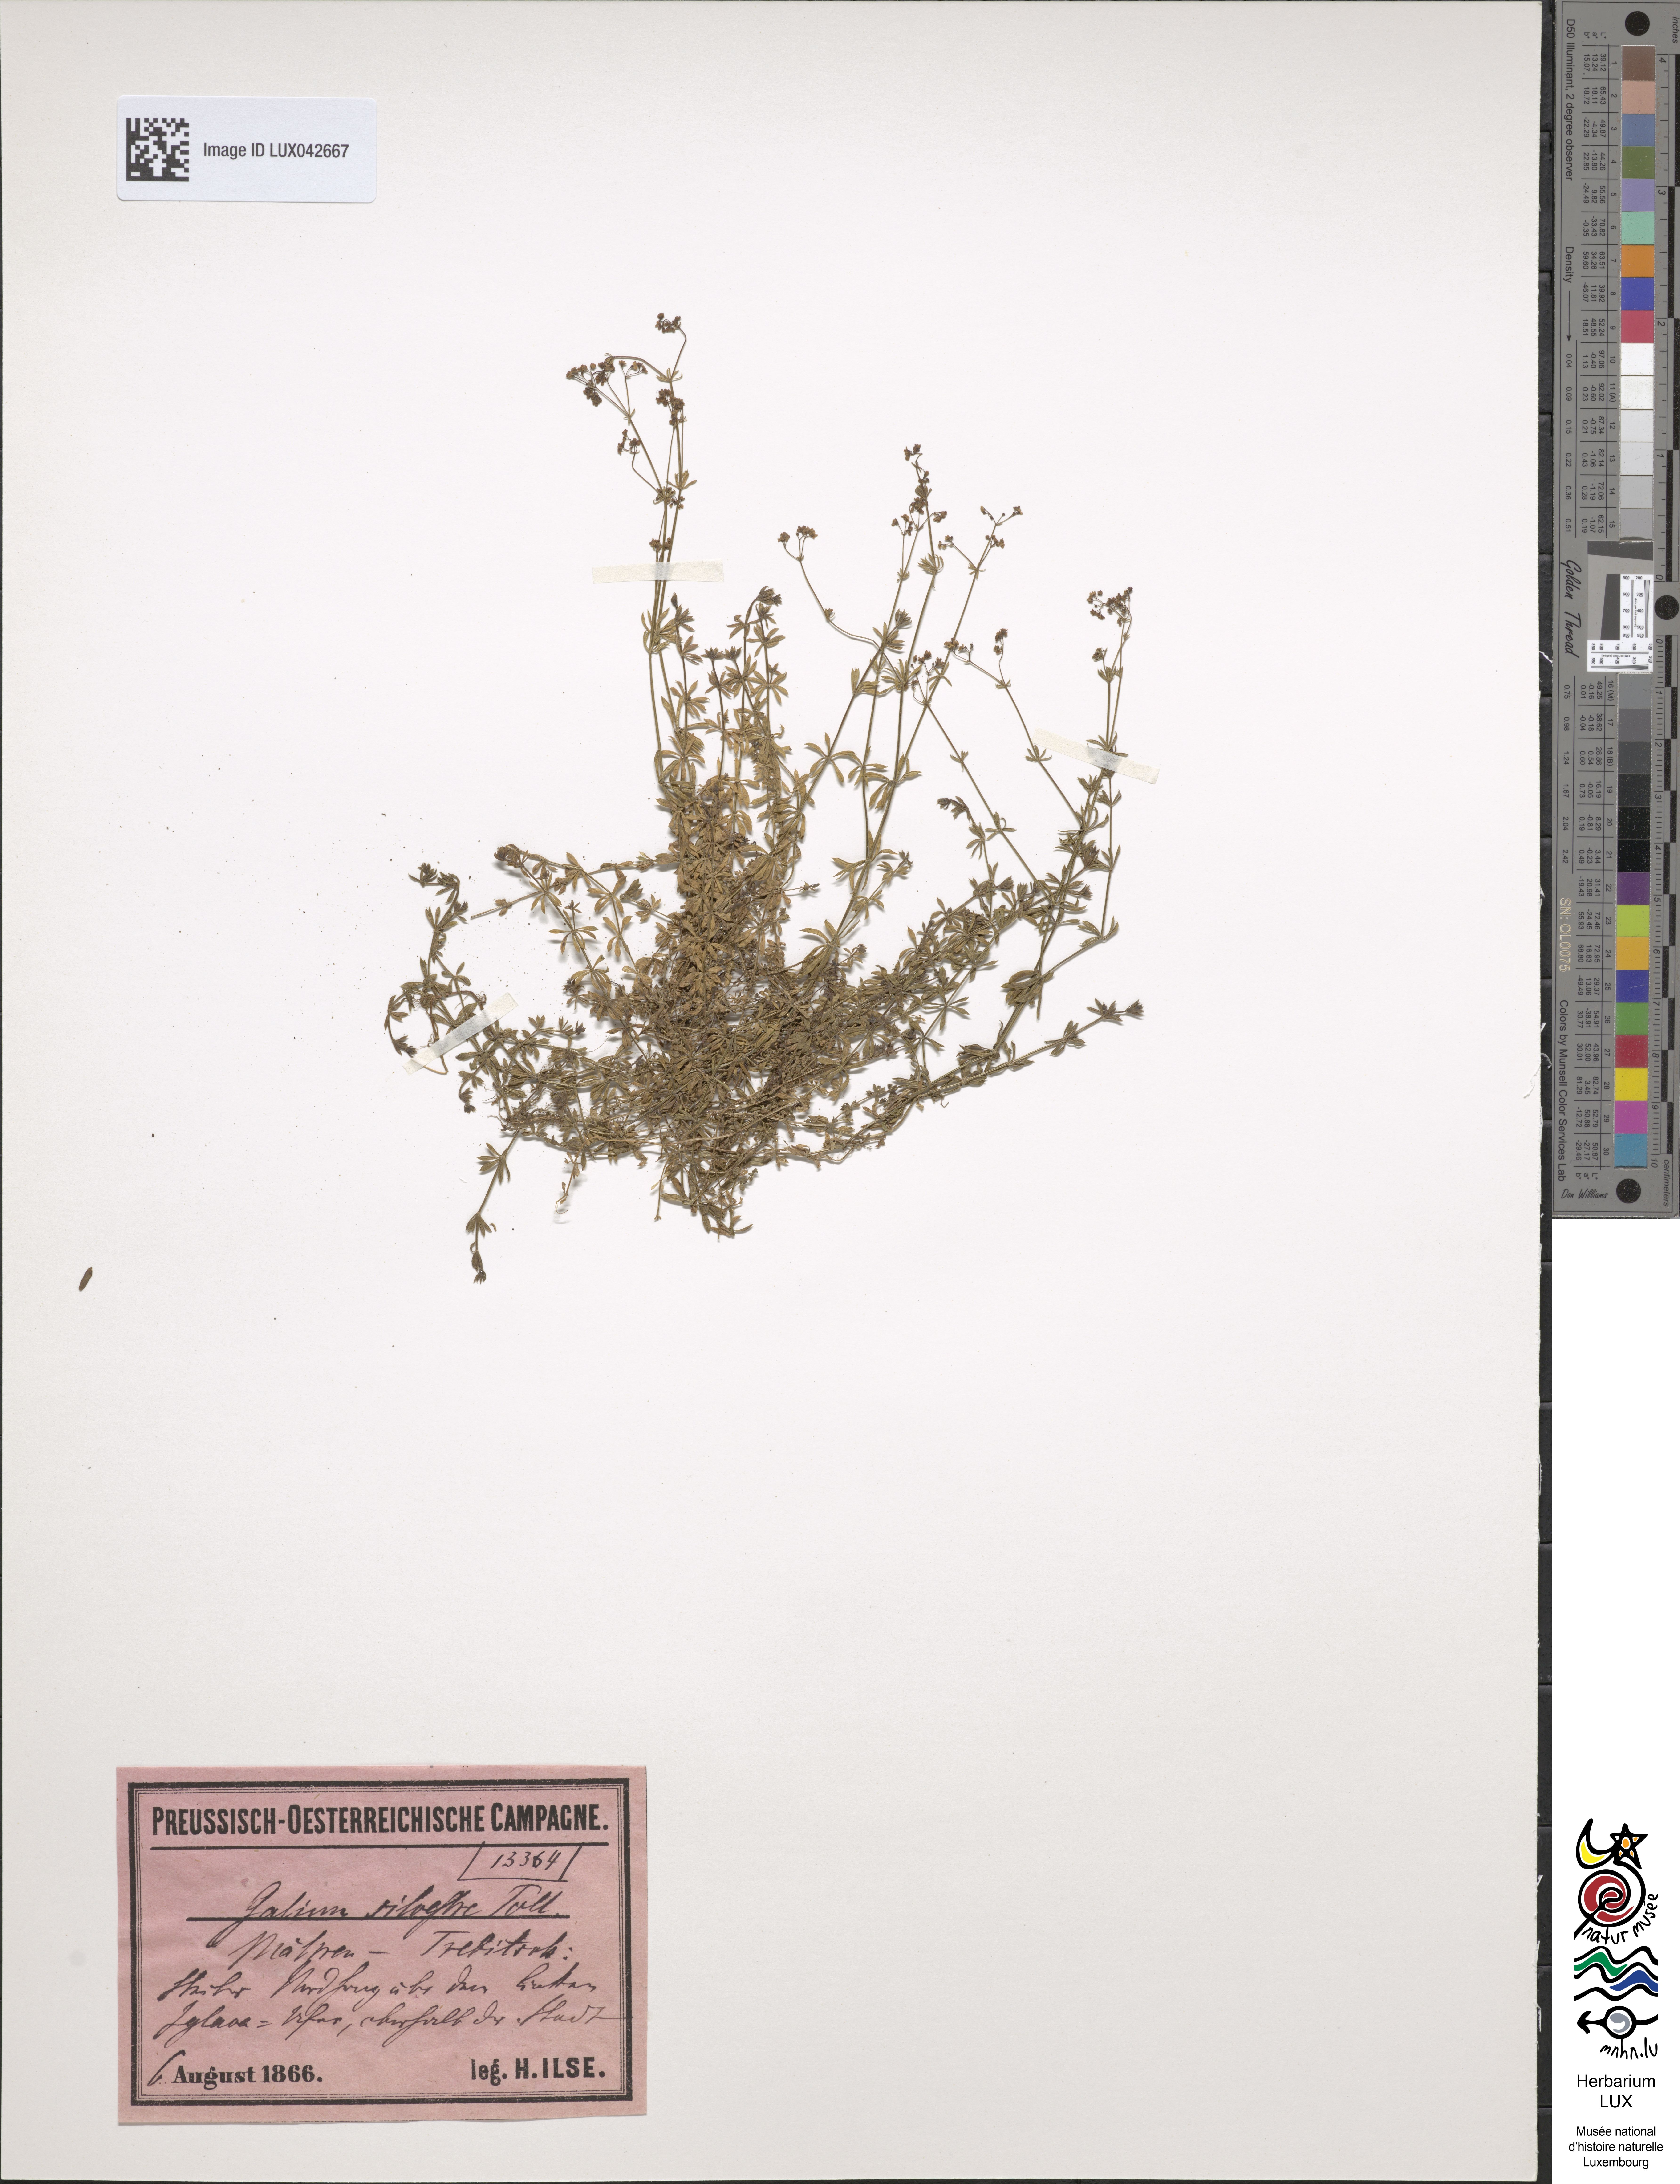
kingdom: Plantae
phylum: Tracheophyta
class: Magnoliopsida
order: Gentianales
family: Rubiaceae
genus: Galium
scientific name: Galium pumilum
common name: Slender bedstraw
